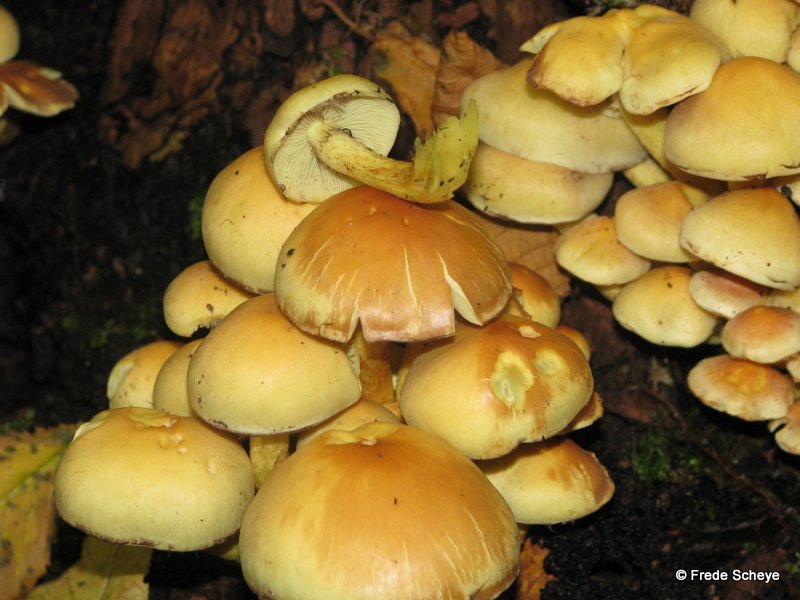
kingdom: Fungi
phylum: Basidiomycota
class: Agaricomycetes
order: Agaricales
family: Strophariaceae
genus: Hypholoma
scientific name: Hypholoma fasciculare
